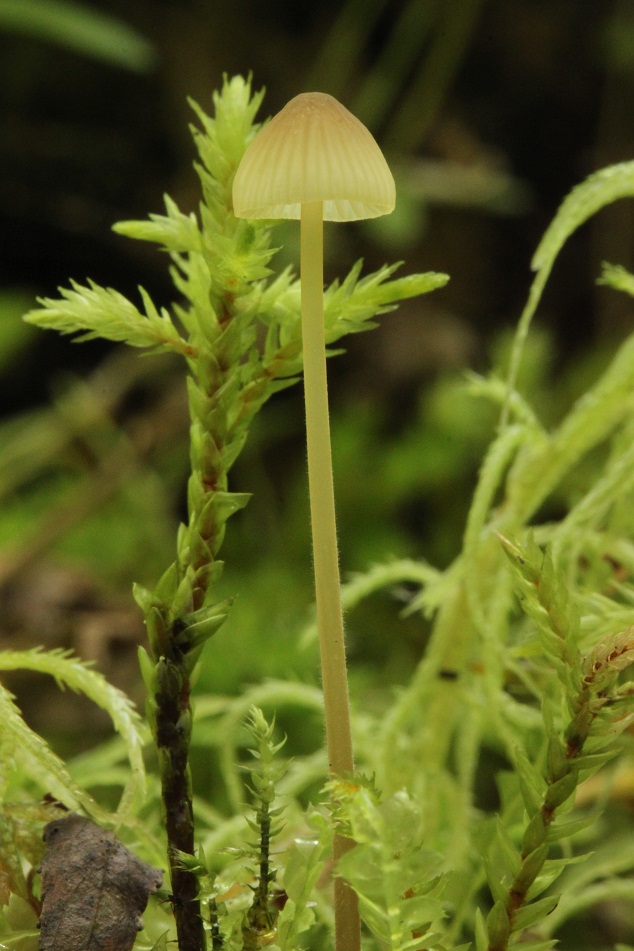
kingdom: Fungi
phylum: Basidiomycota
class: Agaricomycetes
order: Agaricales
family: Mycenaceae
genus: Mycena
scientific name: Mycena citrinomarginata
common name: gulægget huesvamp
